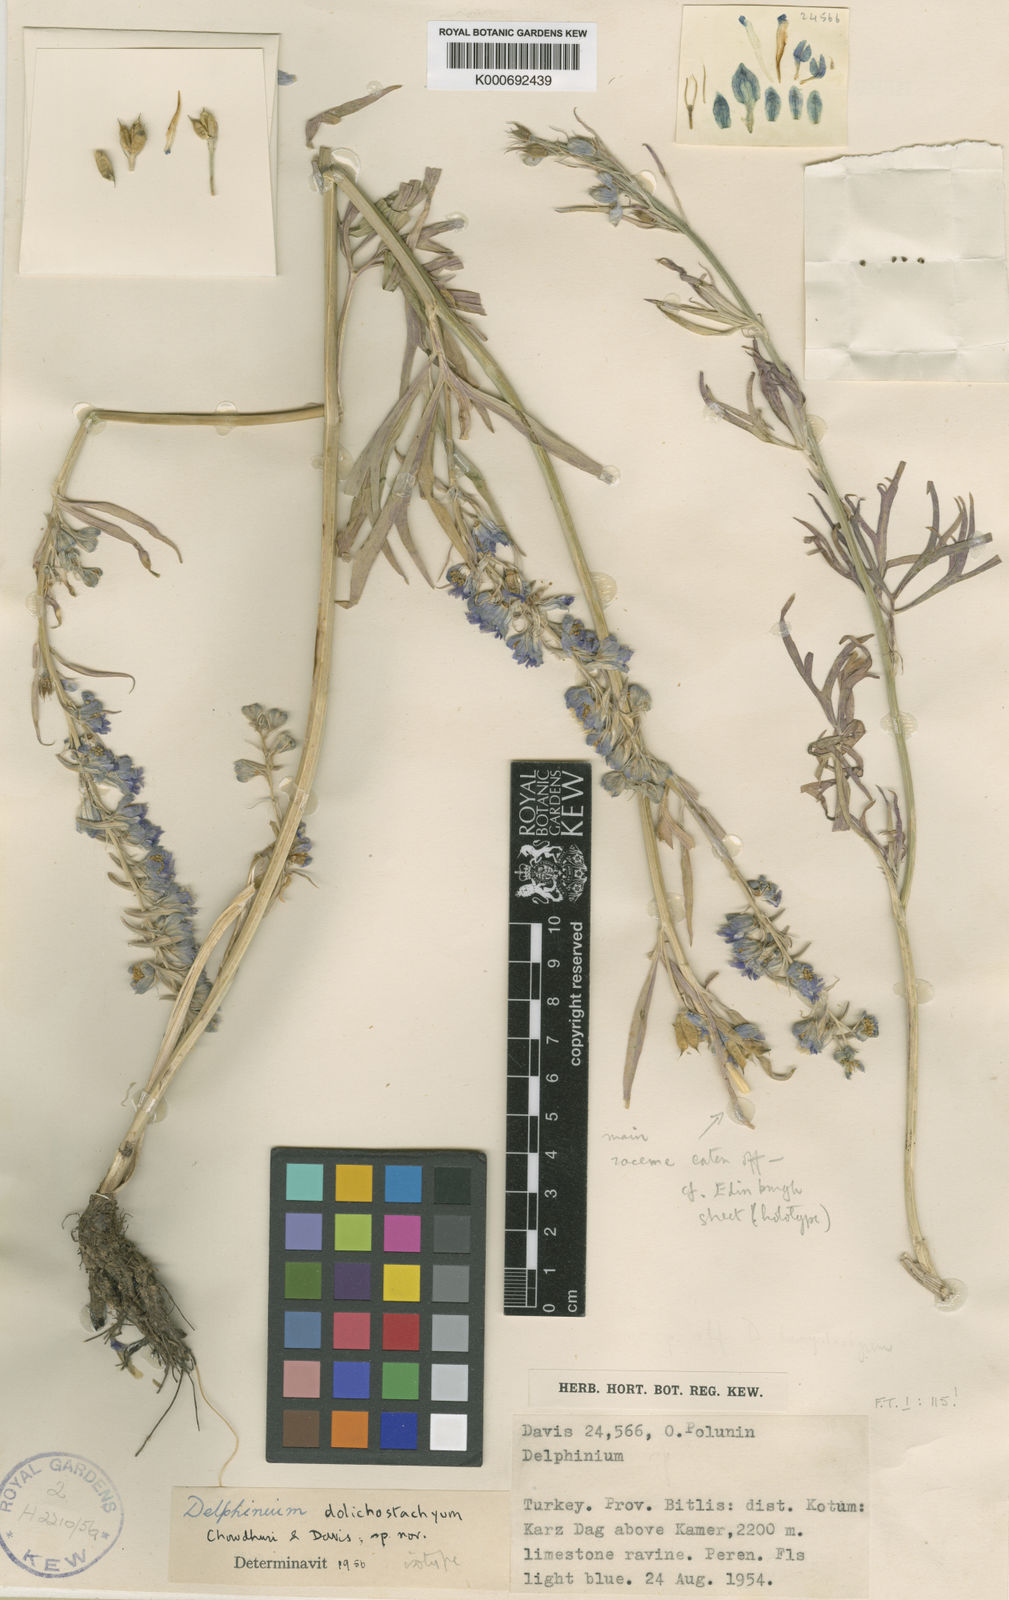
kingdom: Plantae
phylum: Tracheophyta
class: Magnoliopsida
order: Ranunculales
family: Ranunculaceae
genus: Delphinium
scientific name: Delphinium dolichostachyum
